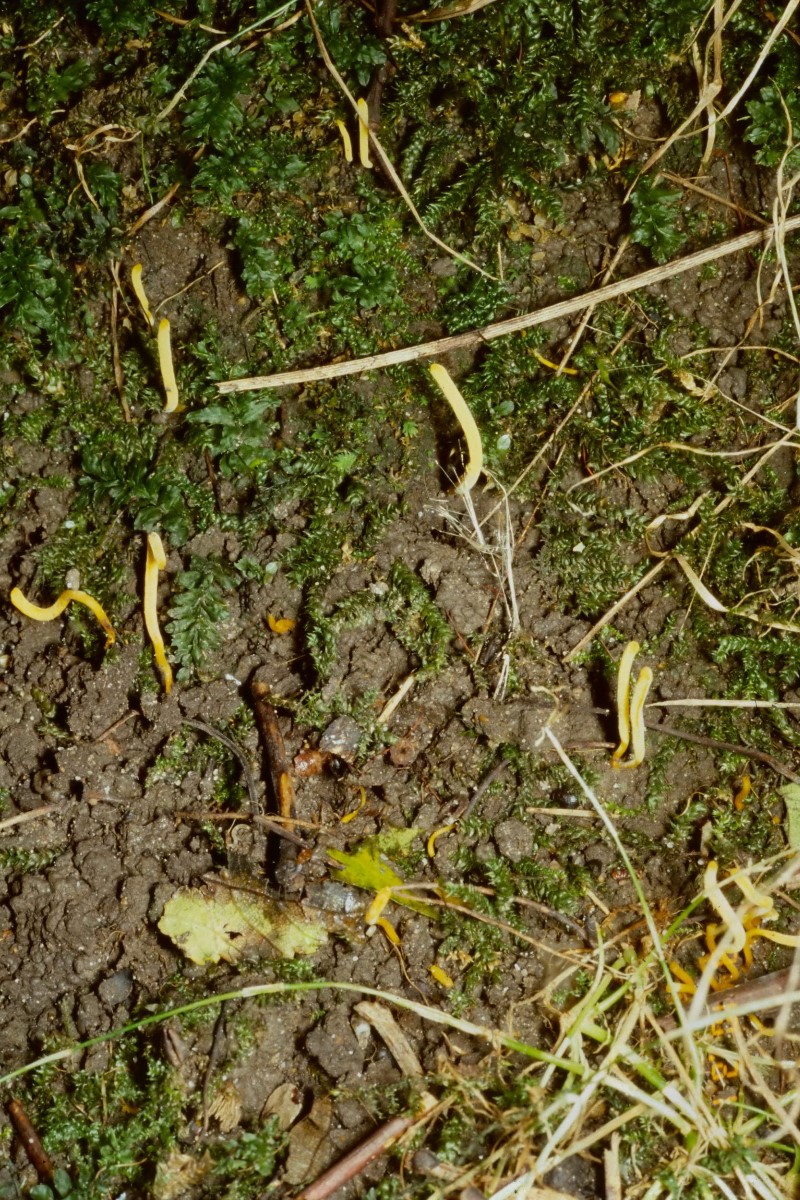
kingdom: Fungi
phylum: Basidiomycota
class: Agaricomycetes
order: Agaricales
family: Clavariaceae
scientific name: Clavariaceae
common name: køllesvampfamilien
